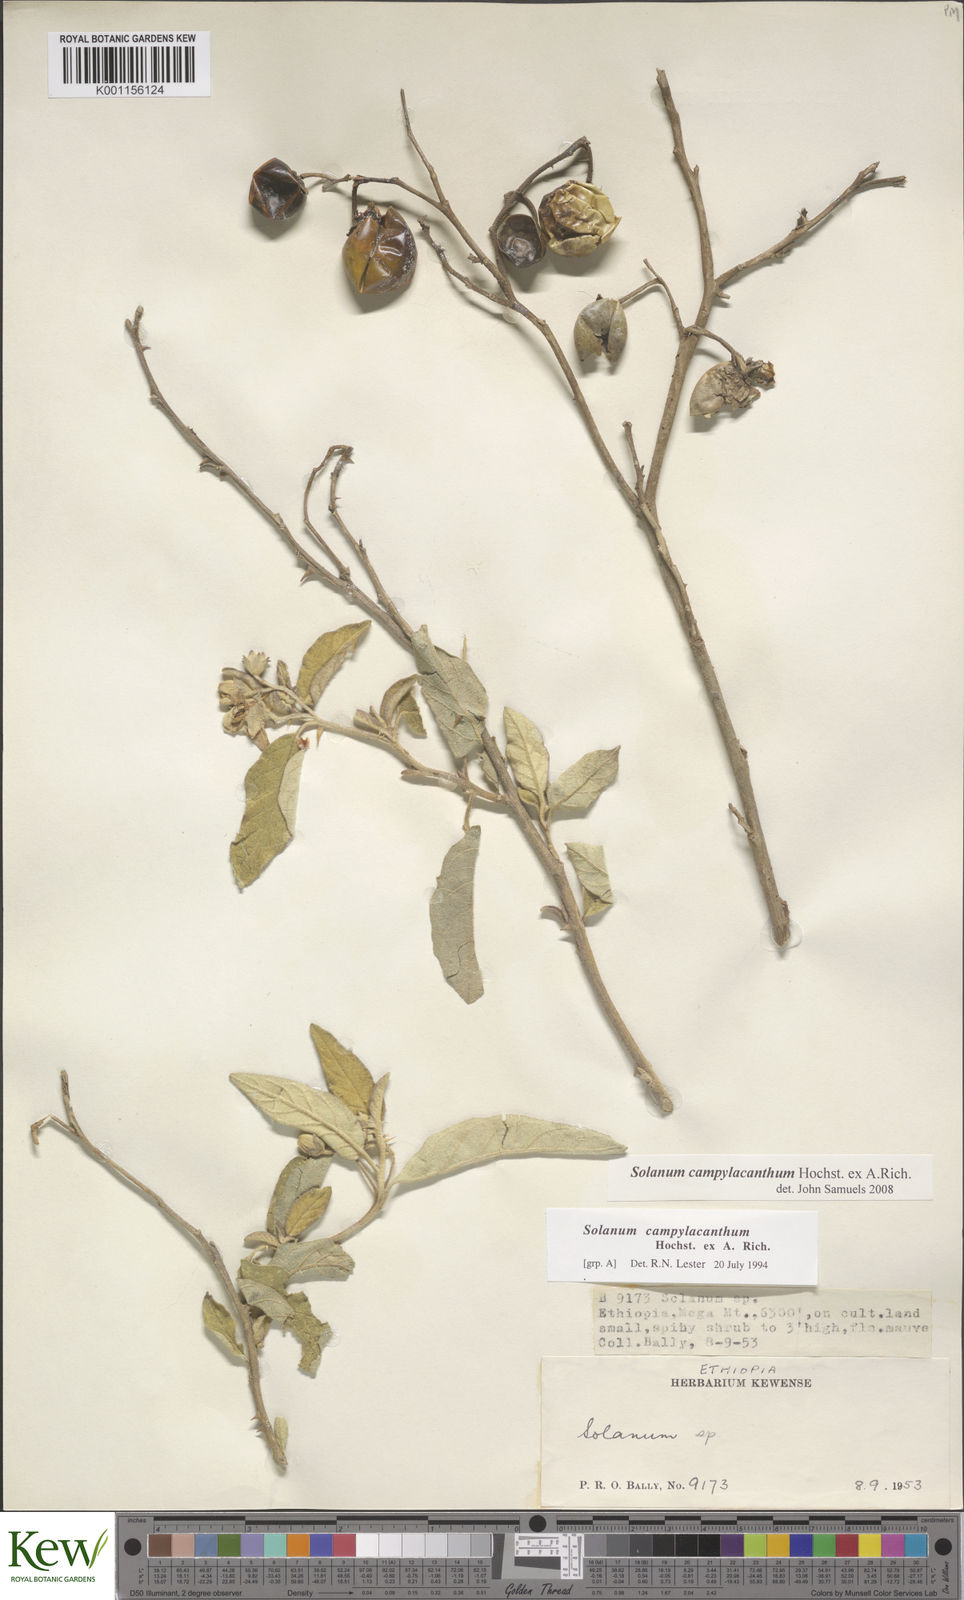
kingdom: Plantae
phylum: Tracheophyta
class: Magnoliopsida
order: Solanales
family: Solanaceae
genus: Solanum
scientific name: Solanum campylacanthum
